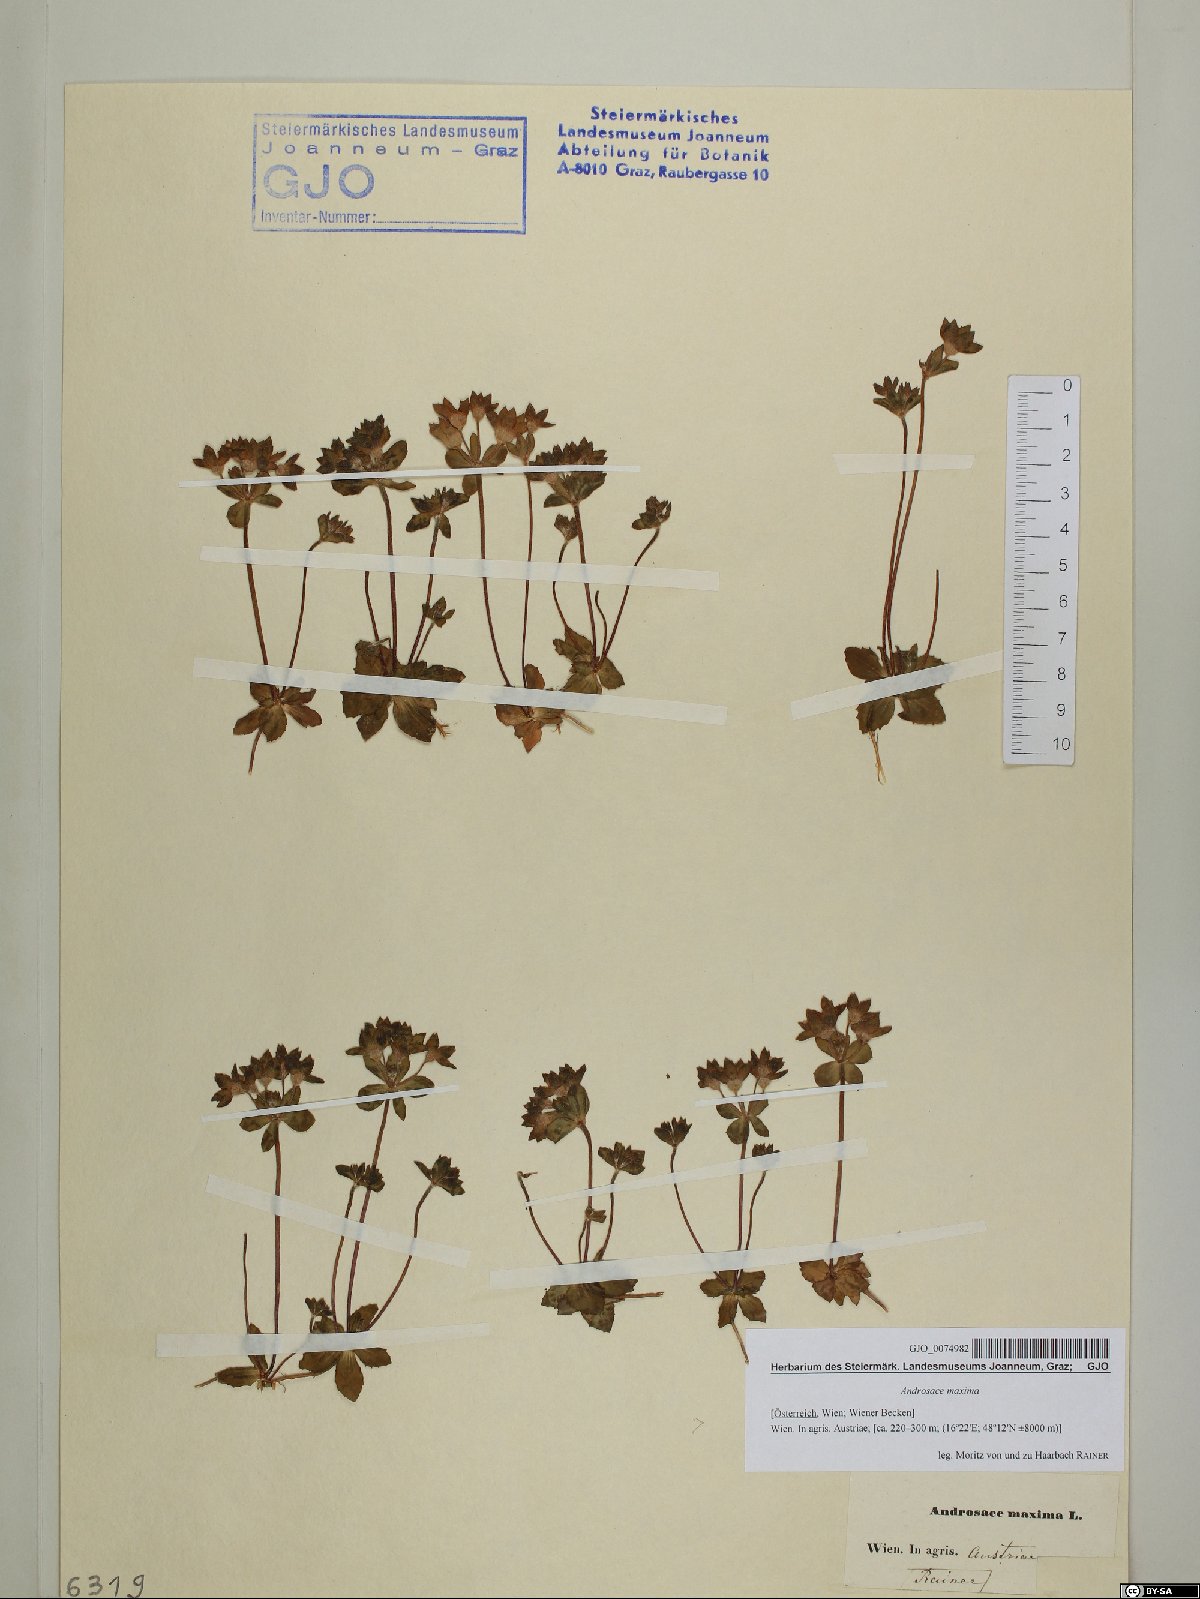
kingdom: Plantae
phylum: Tracheophyta
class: Magnoliopsida
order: Ericales
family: Primulaceae
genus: Androsace
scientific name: Androsace maxima
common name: Annual androsace
